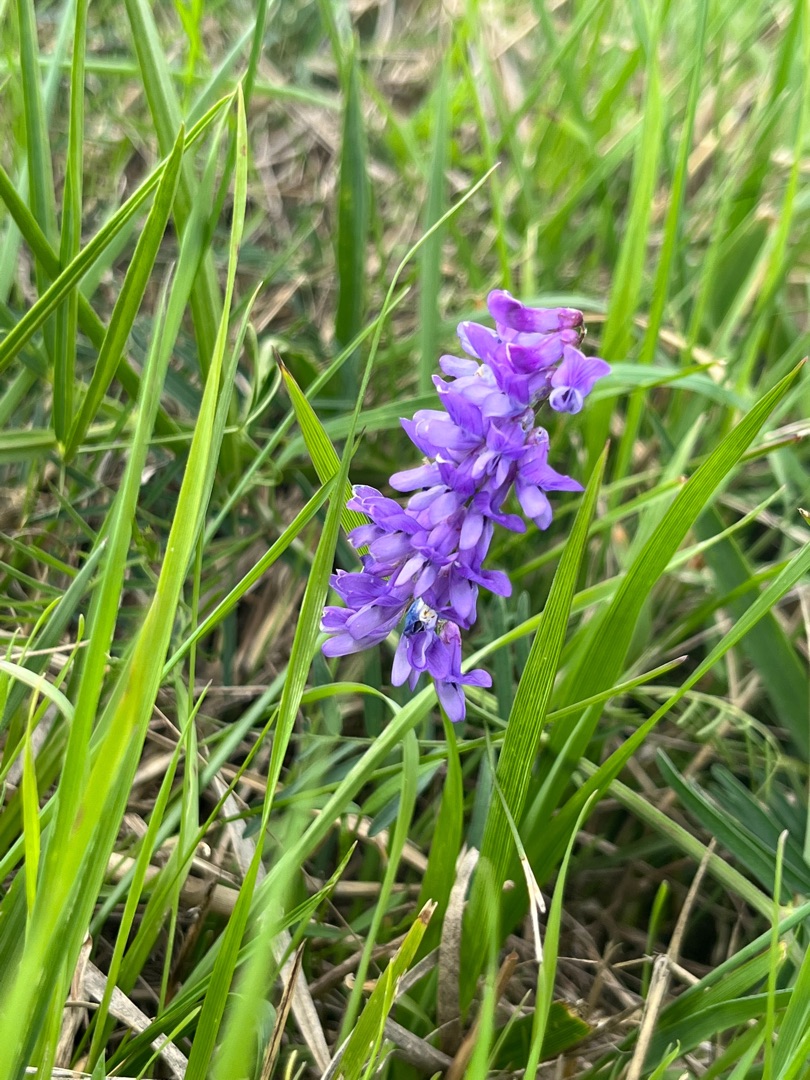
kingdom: Plantae
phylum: Tracheophyta
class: Magnoliopsida
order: Fabales
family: Fabaceae
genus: Vicia
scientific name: Vicia cracca
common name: Muse-vikke
